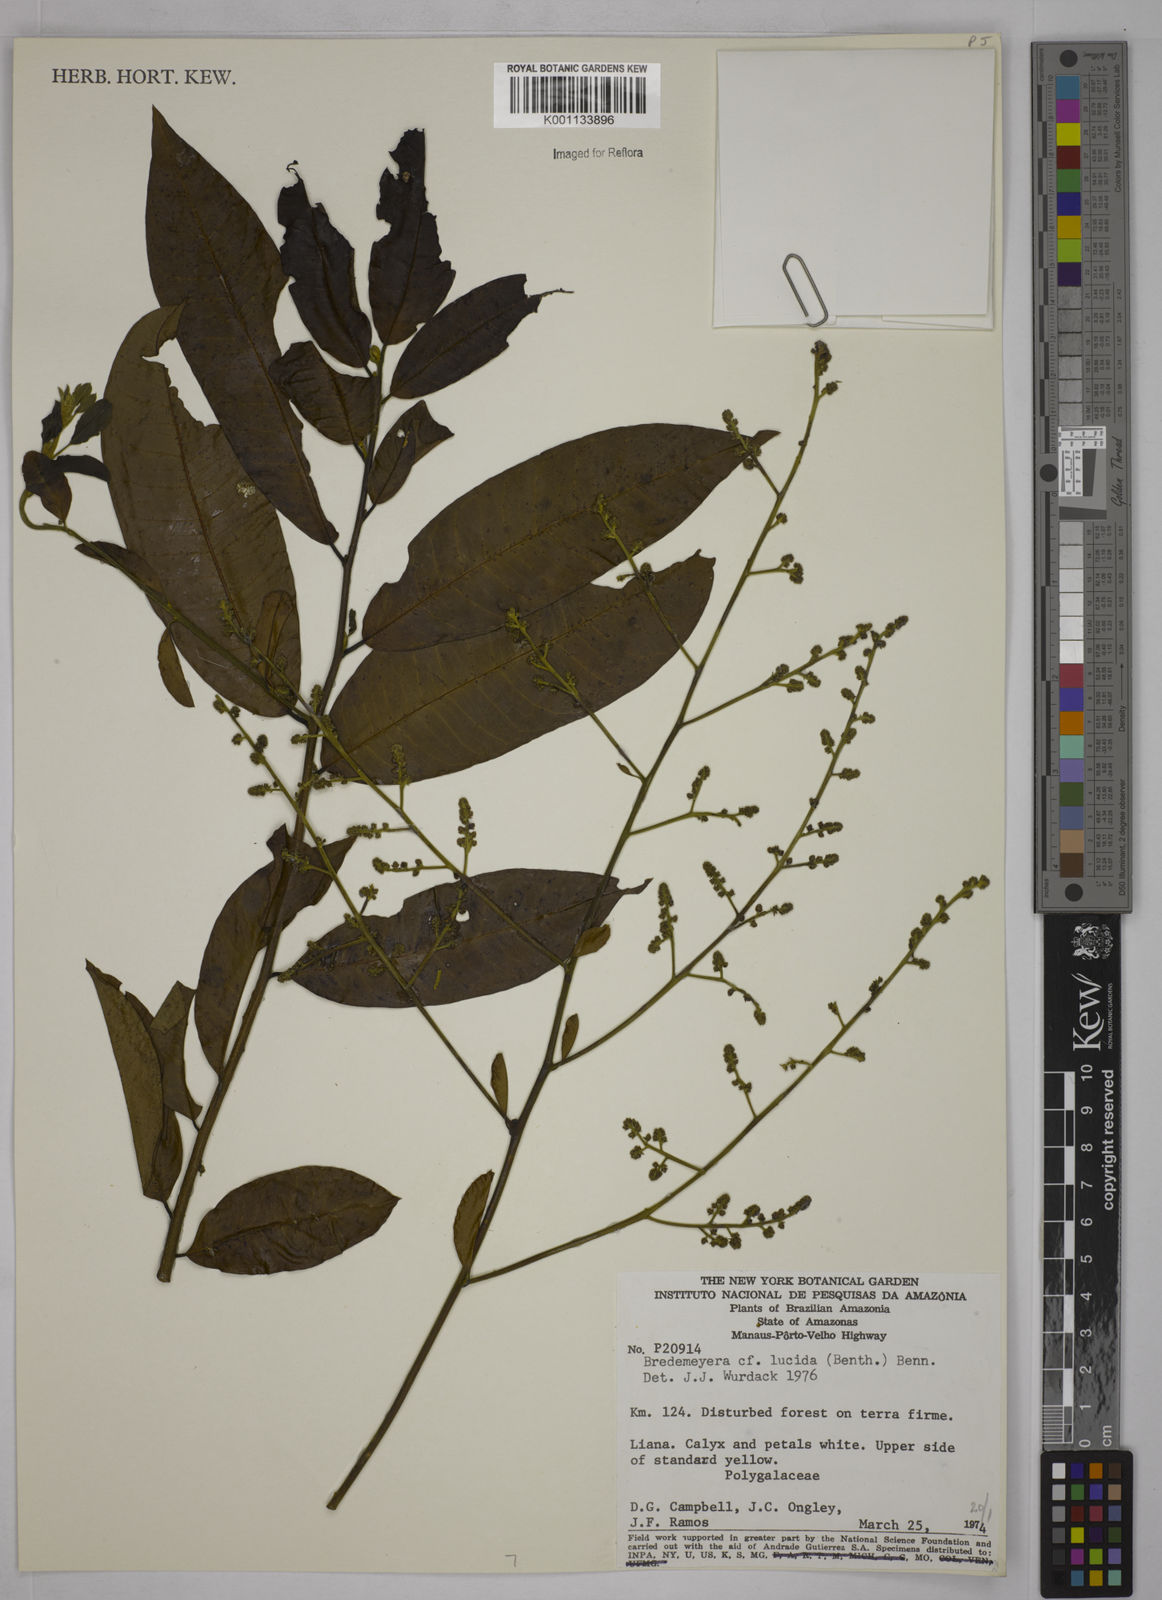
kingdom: Plantae
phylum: Tracheophyta
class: Magnoliopsida
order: Fabales
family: Polygalaceae
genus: Bredemeyera
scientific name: Bredemeyera lucida
